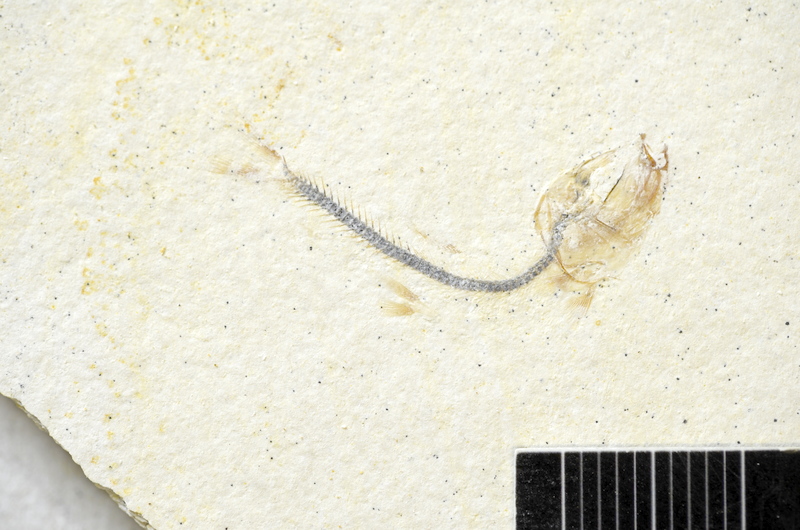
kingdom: Animalia
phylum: Chordata
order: Salmoniformes
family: Orthogonikleithridae
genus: Orthogonikleithrus
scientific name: Orthogonikleithrus hoelli
